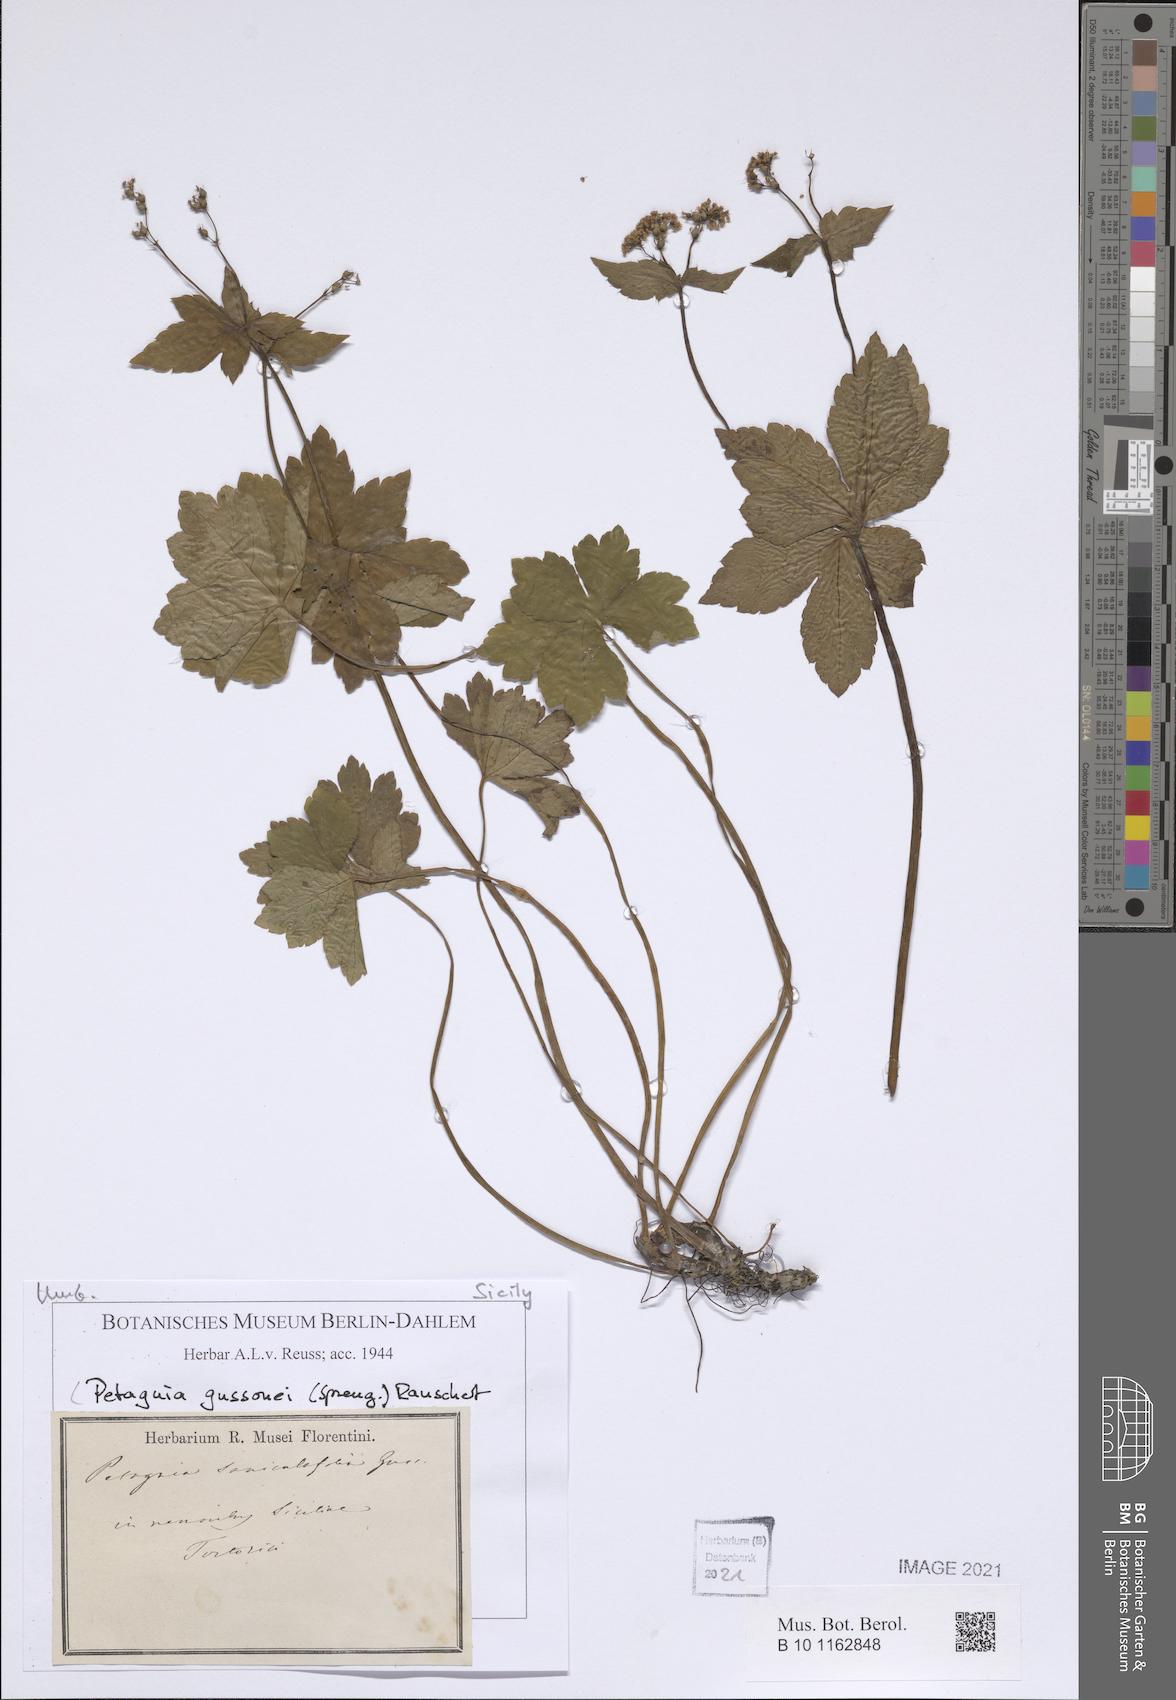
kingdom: Plantae
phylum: Tracheophyta
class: Magnoliopsida
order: Apiales
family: Apiaceae
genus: Petagnaea
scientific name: Petagnaea gussonei
